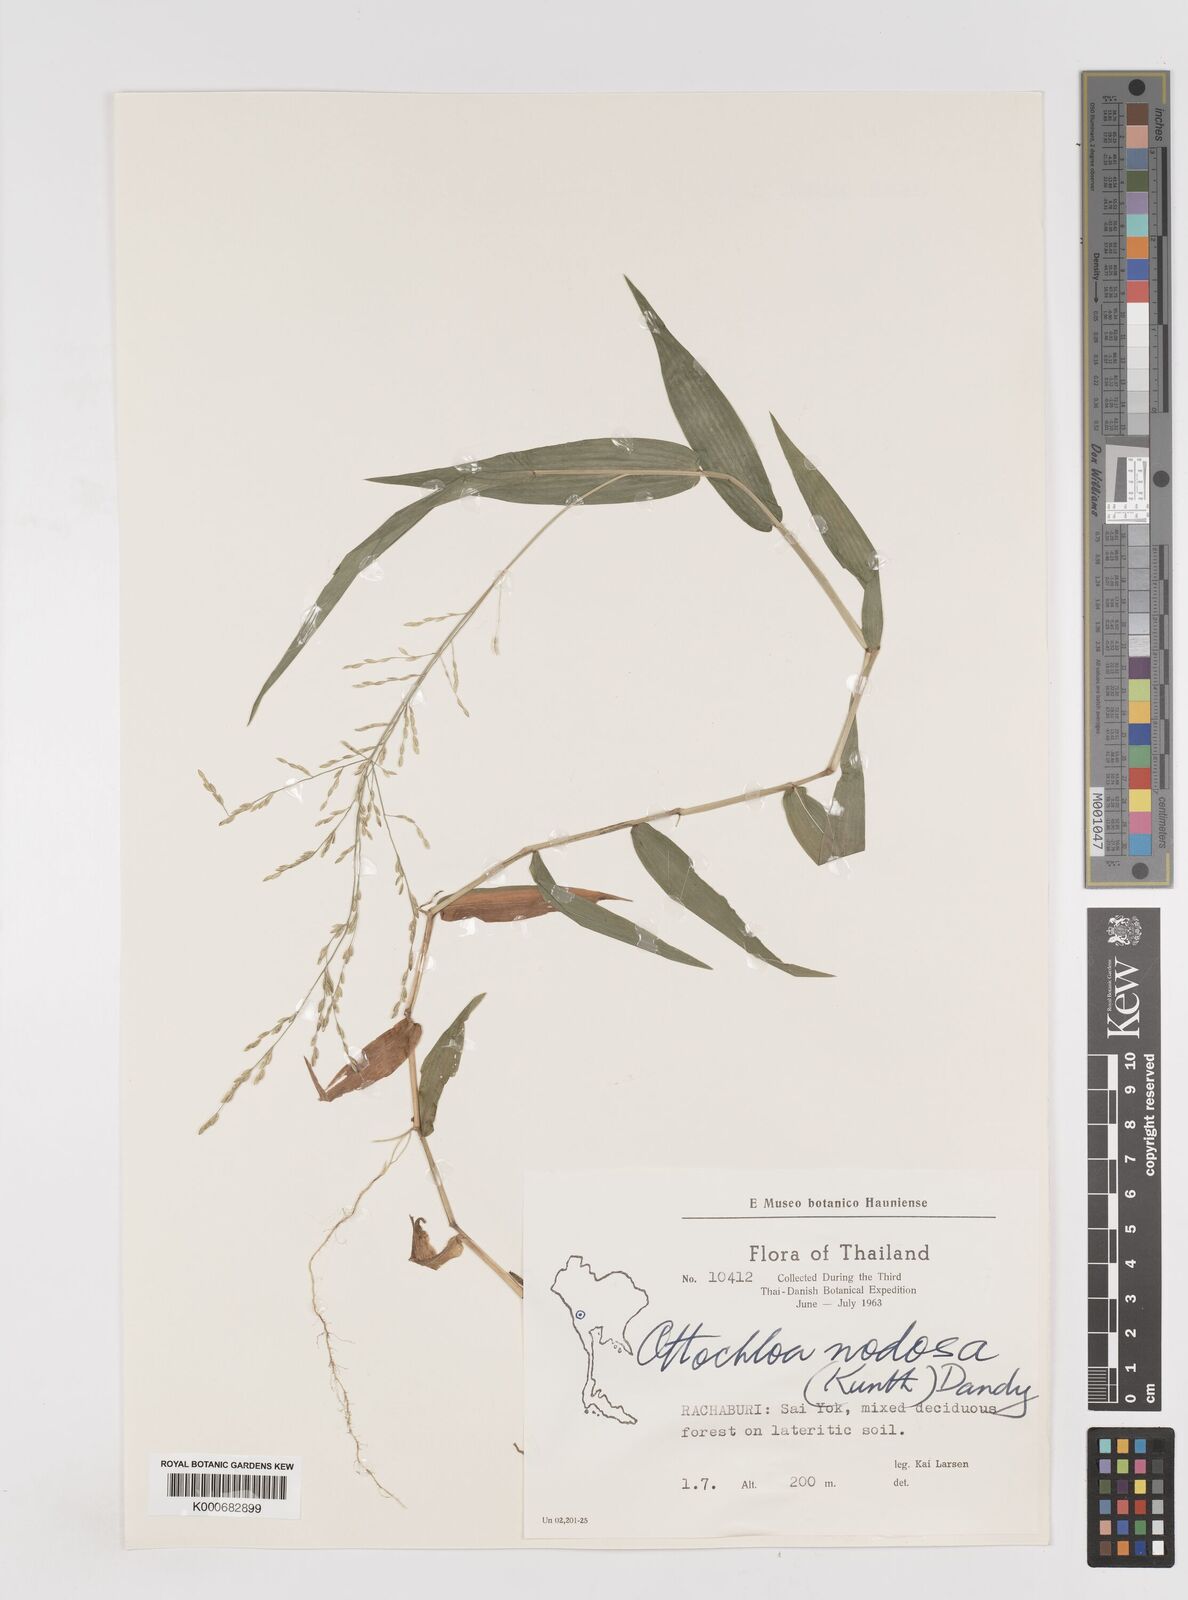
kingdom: Plantae
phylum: Tracheophyta
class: Liliopsida
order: Poales
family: Poaceae
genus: Ottochloa
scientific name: Ottochloa nodosa
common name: Slender-panic grass
